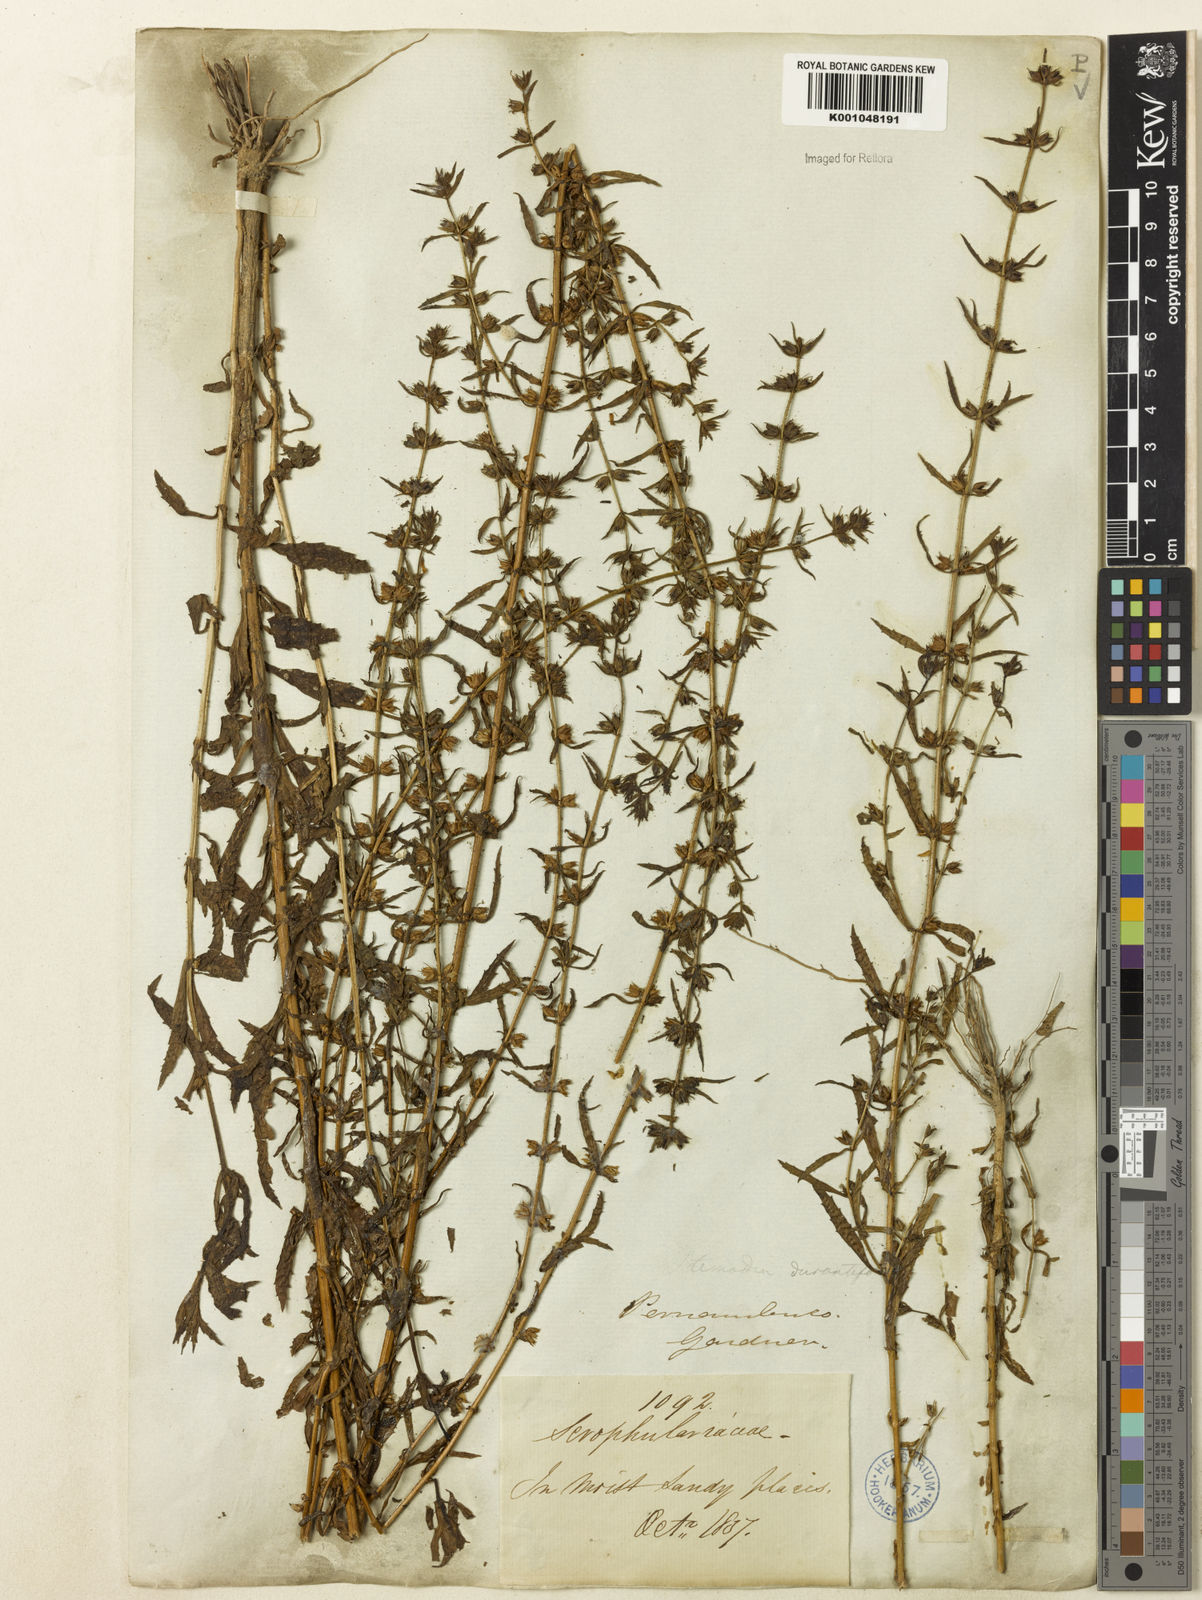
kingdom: Plantae
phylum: Tracheophyta
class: Magnoliopsida
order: Lamiales
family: Plantaginaceae
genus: Stemodia
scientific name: Stemodia durantifolia
